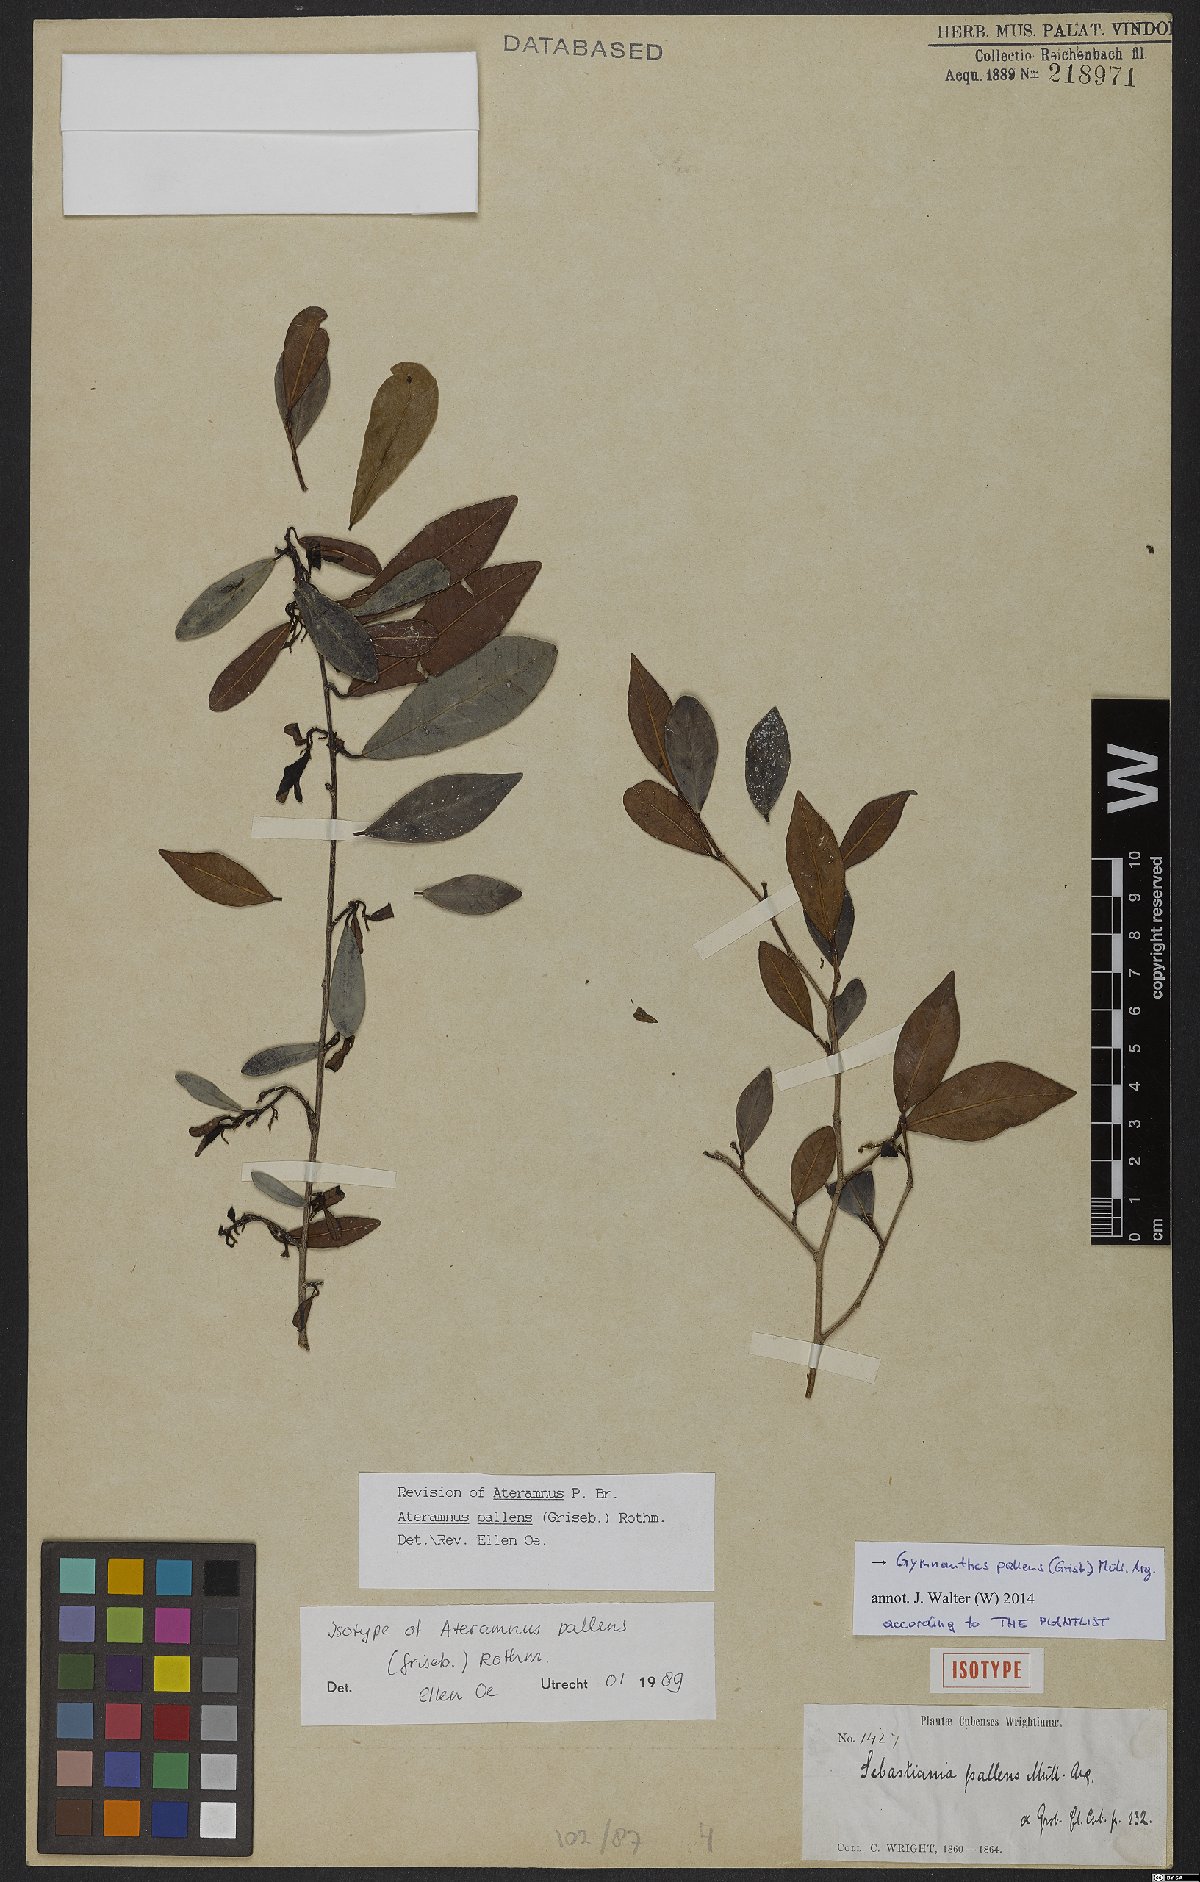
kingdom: Plantae
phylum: Tracheophyta
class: Magnoliopsida
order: Malpighiales
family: Euphorbiaceae
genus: Gymnanthes
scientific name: Gymnanthes pallens
